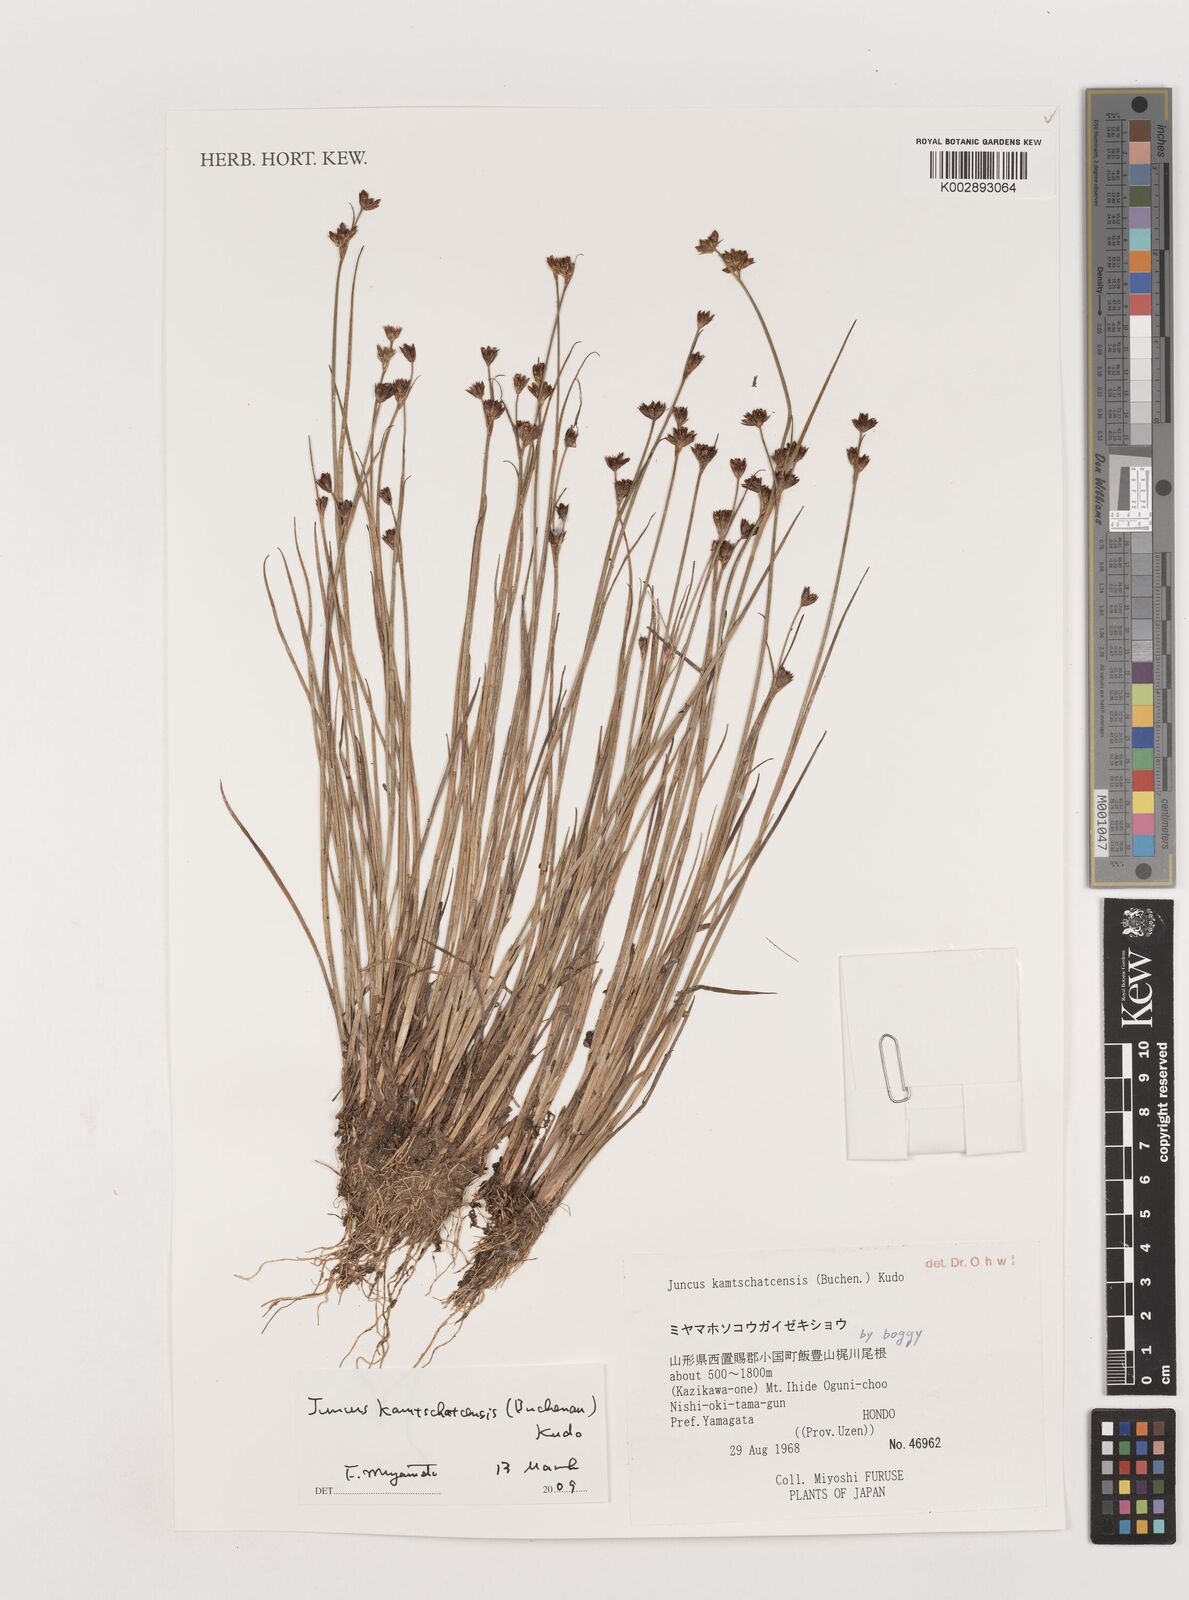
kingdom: Plantae
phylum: Tracheophyta
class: Liliopsida
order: Poales
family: Juncaceae
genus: Juncus
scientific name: Juncus fauriensis
